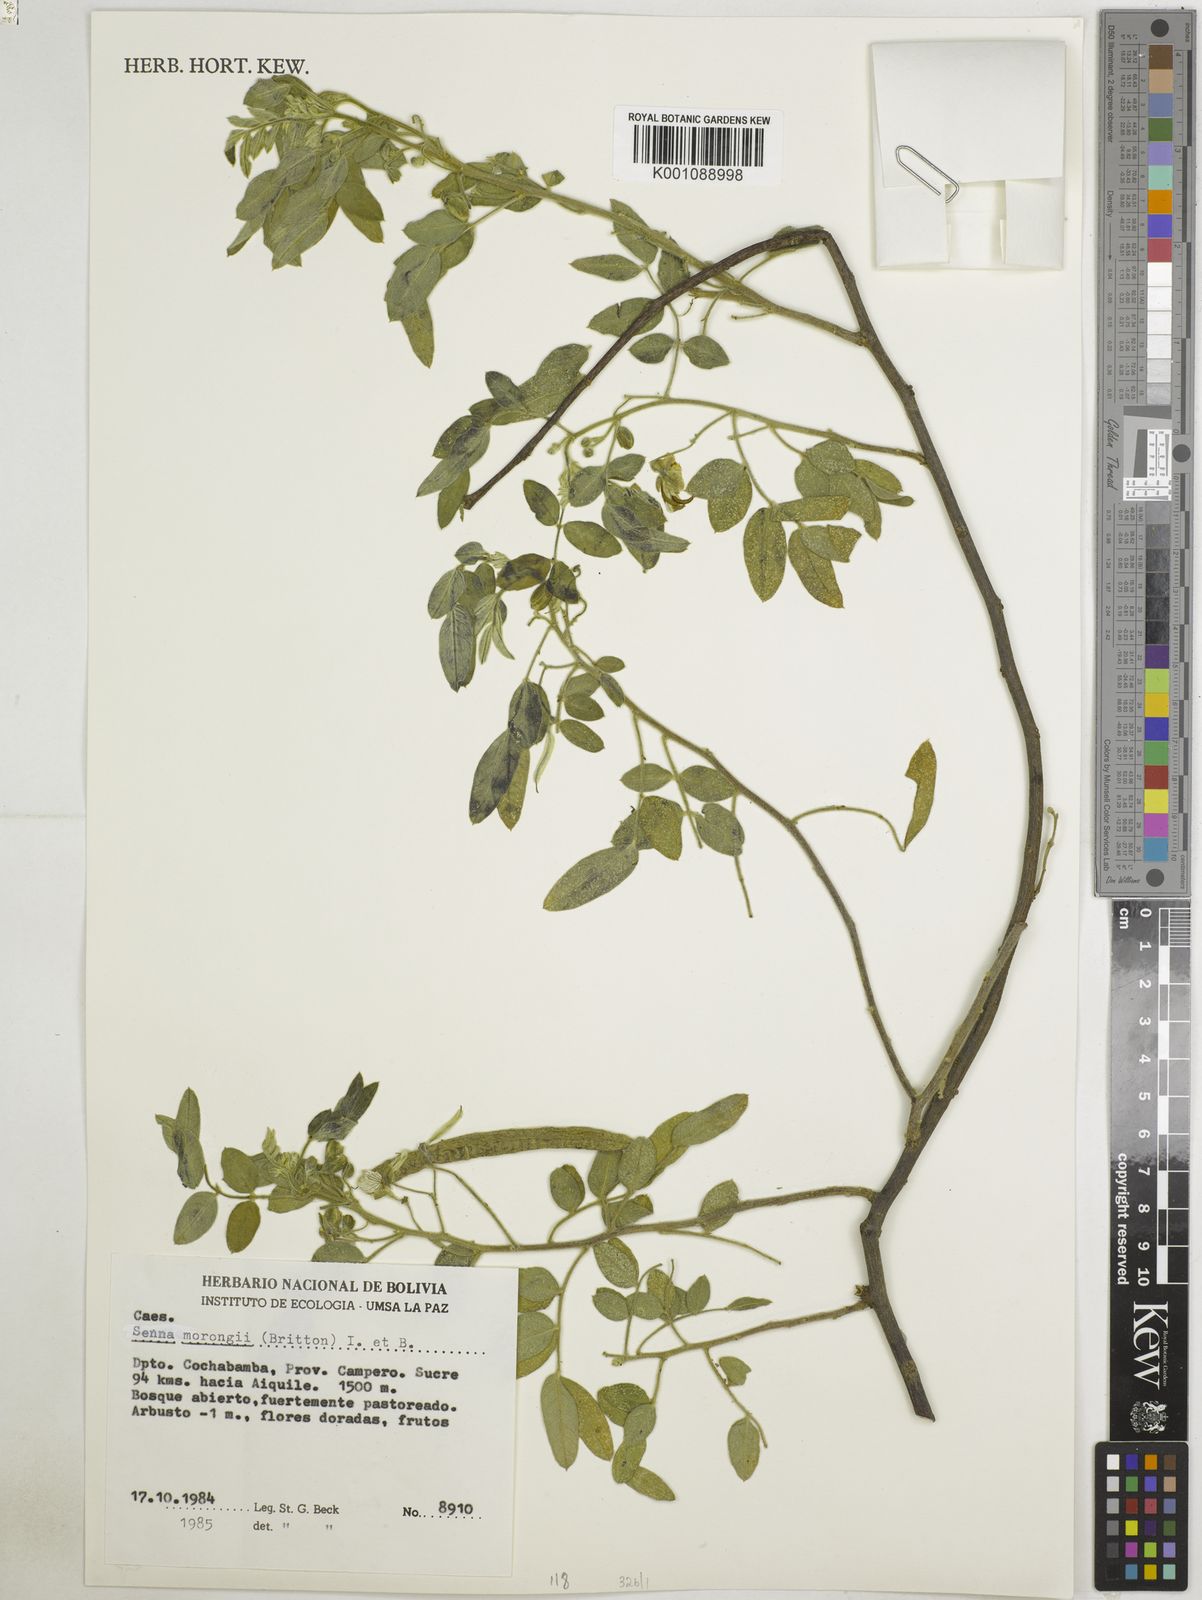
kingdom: Plantae
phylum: Tracheophyta
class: Magnoliopsida
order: Fabales
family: Fabaceae
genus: Senna
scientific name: Senna morongii
